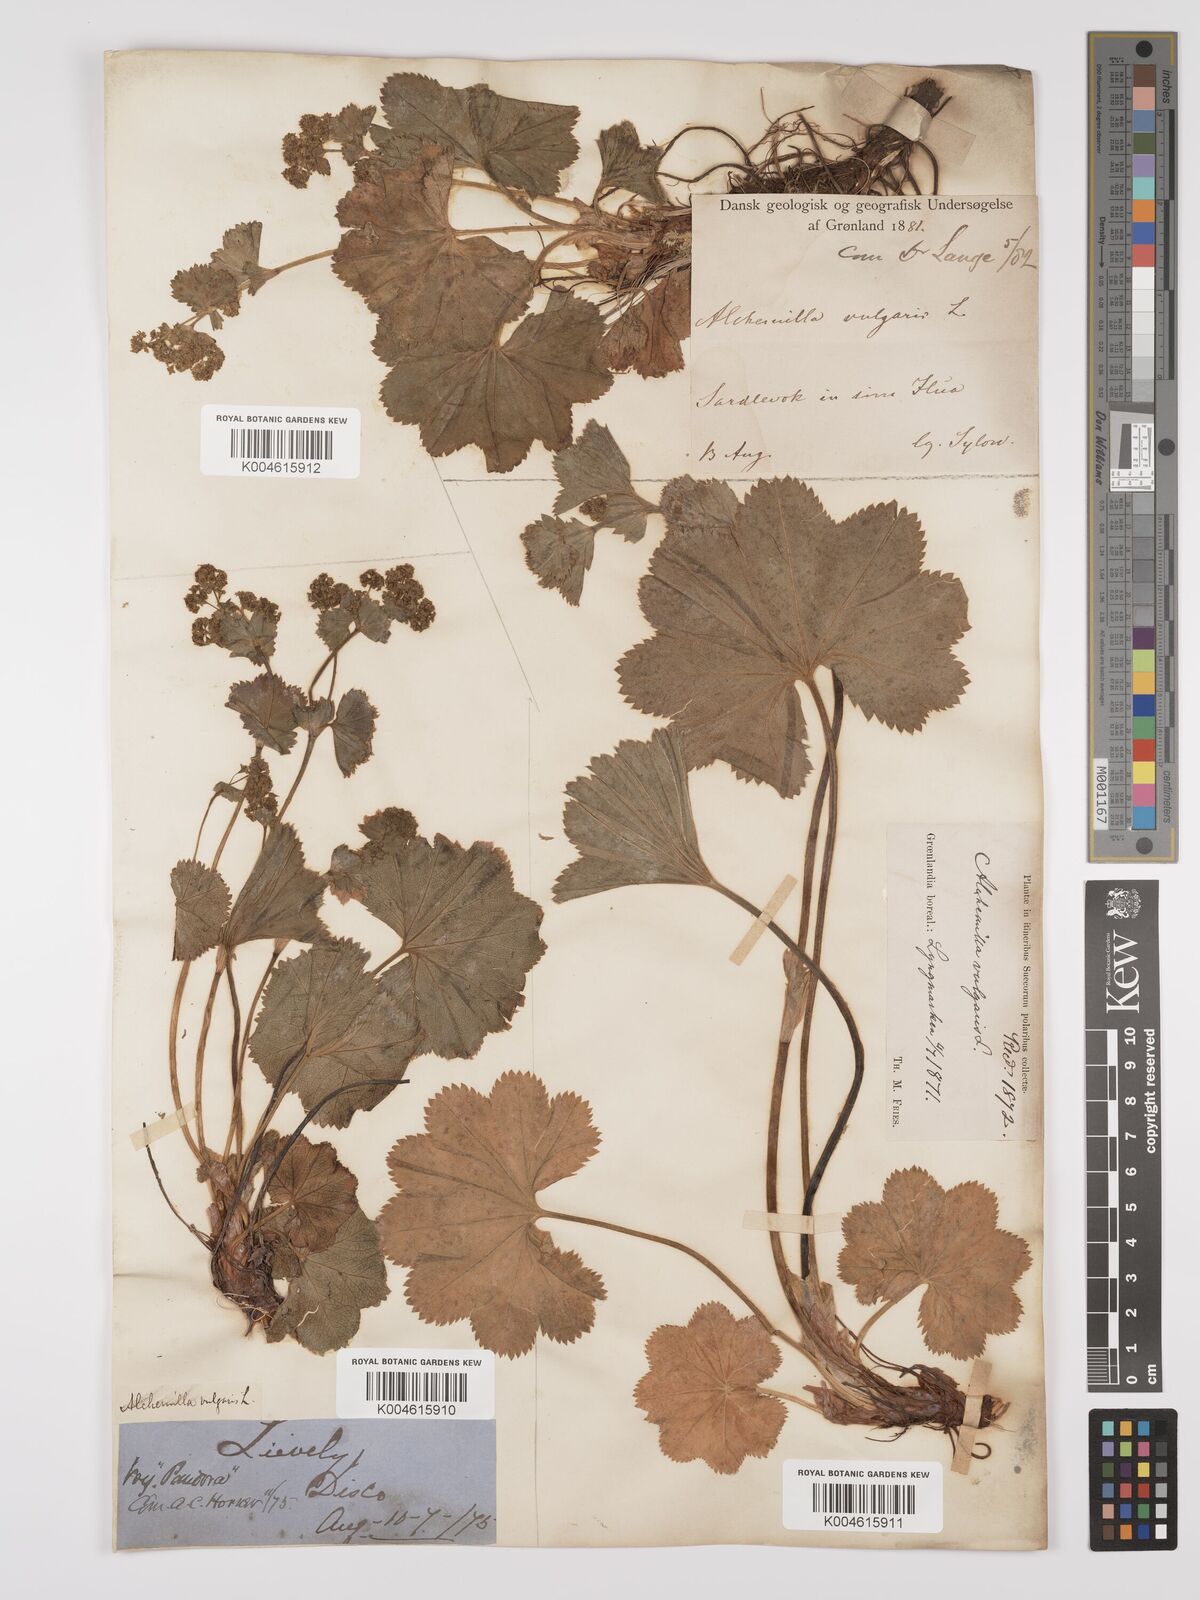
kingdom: Plantae
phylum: Tracheophyta
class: Magnoliopsida
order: Rosales
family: Rosaceae
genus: Alchemilla
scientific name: Alchemilla vulgaris
